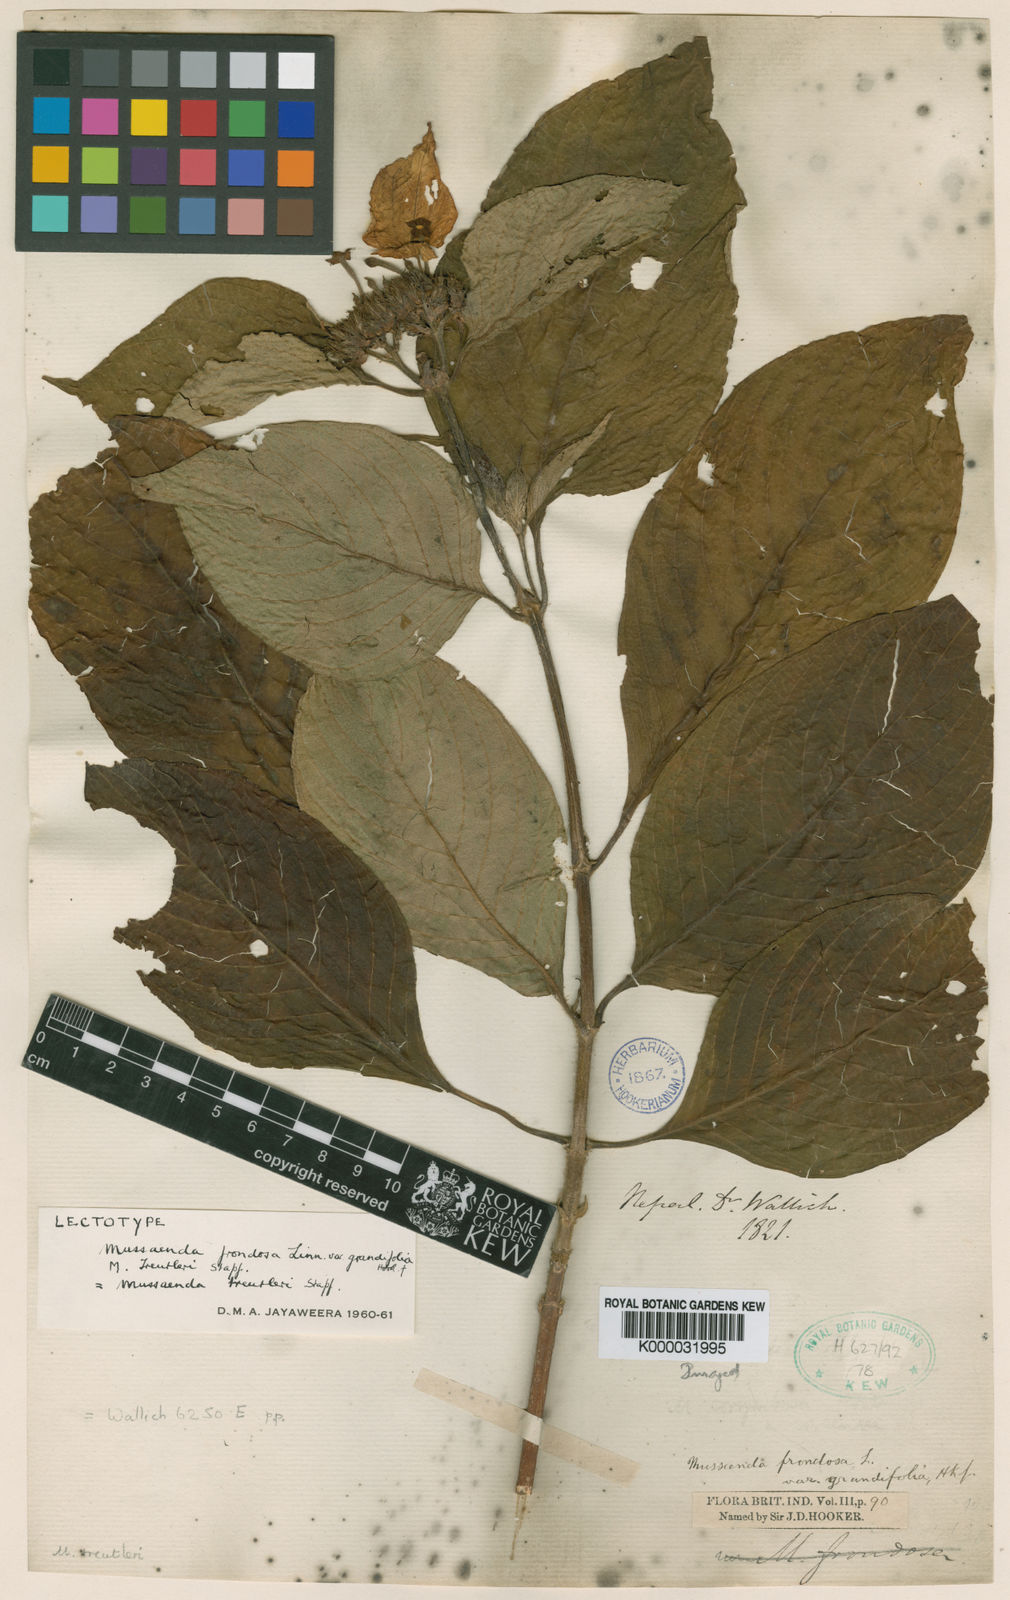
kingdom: Plantae
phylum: Tracheophyta
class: Magnoliopsida
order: Gentianales
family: Rubiaceae
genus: Mussaenda
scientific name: Mussaenda macrophylla
